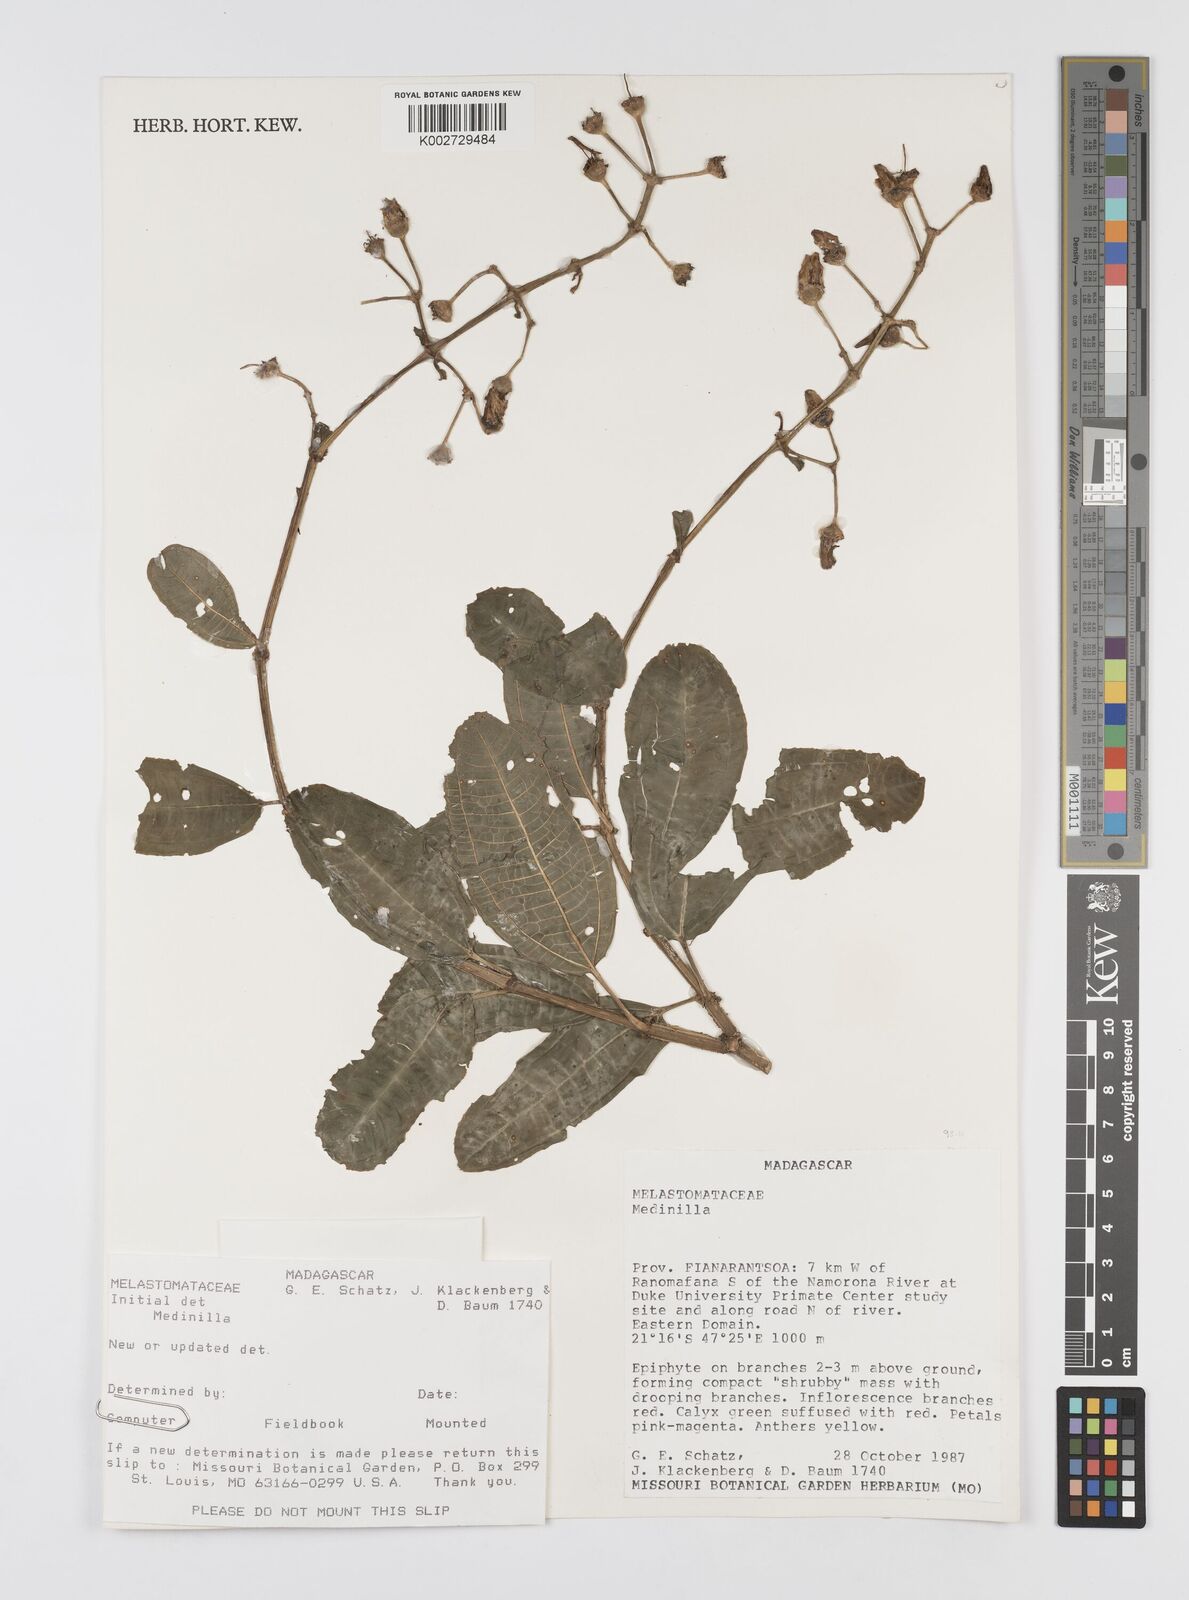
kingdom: Plantae
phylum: Tracheophyta
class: Magnoliopsida
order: Myrtales
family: Melastomataceae
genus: Medinilla
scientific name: Medinilla
